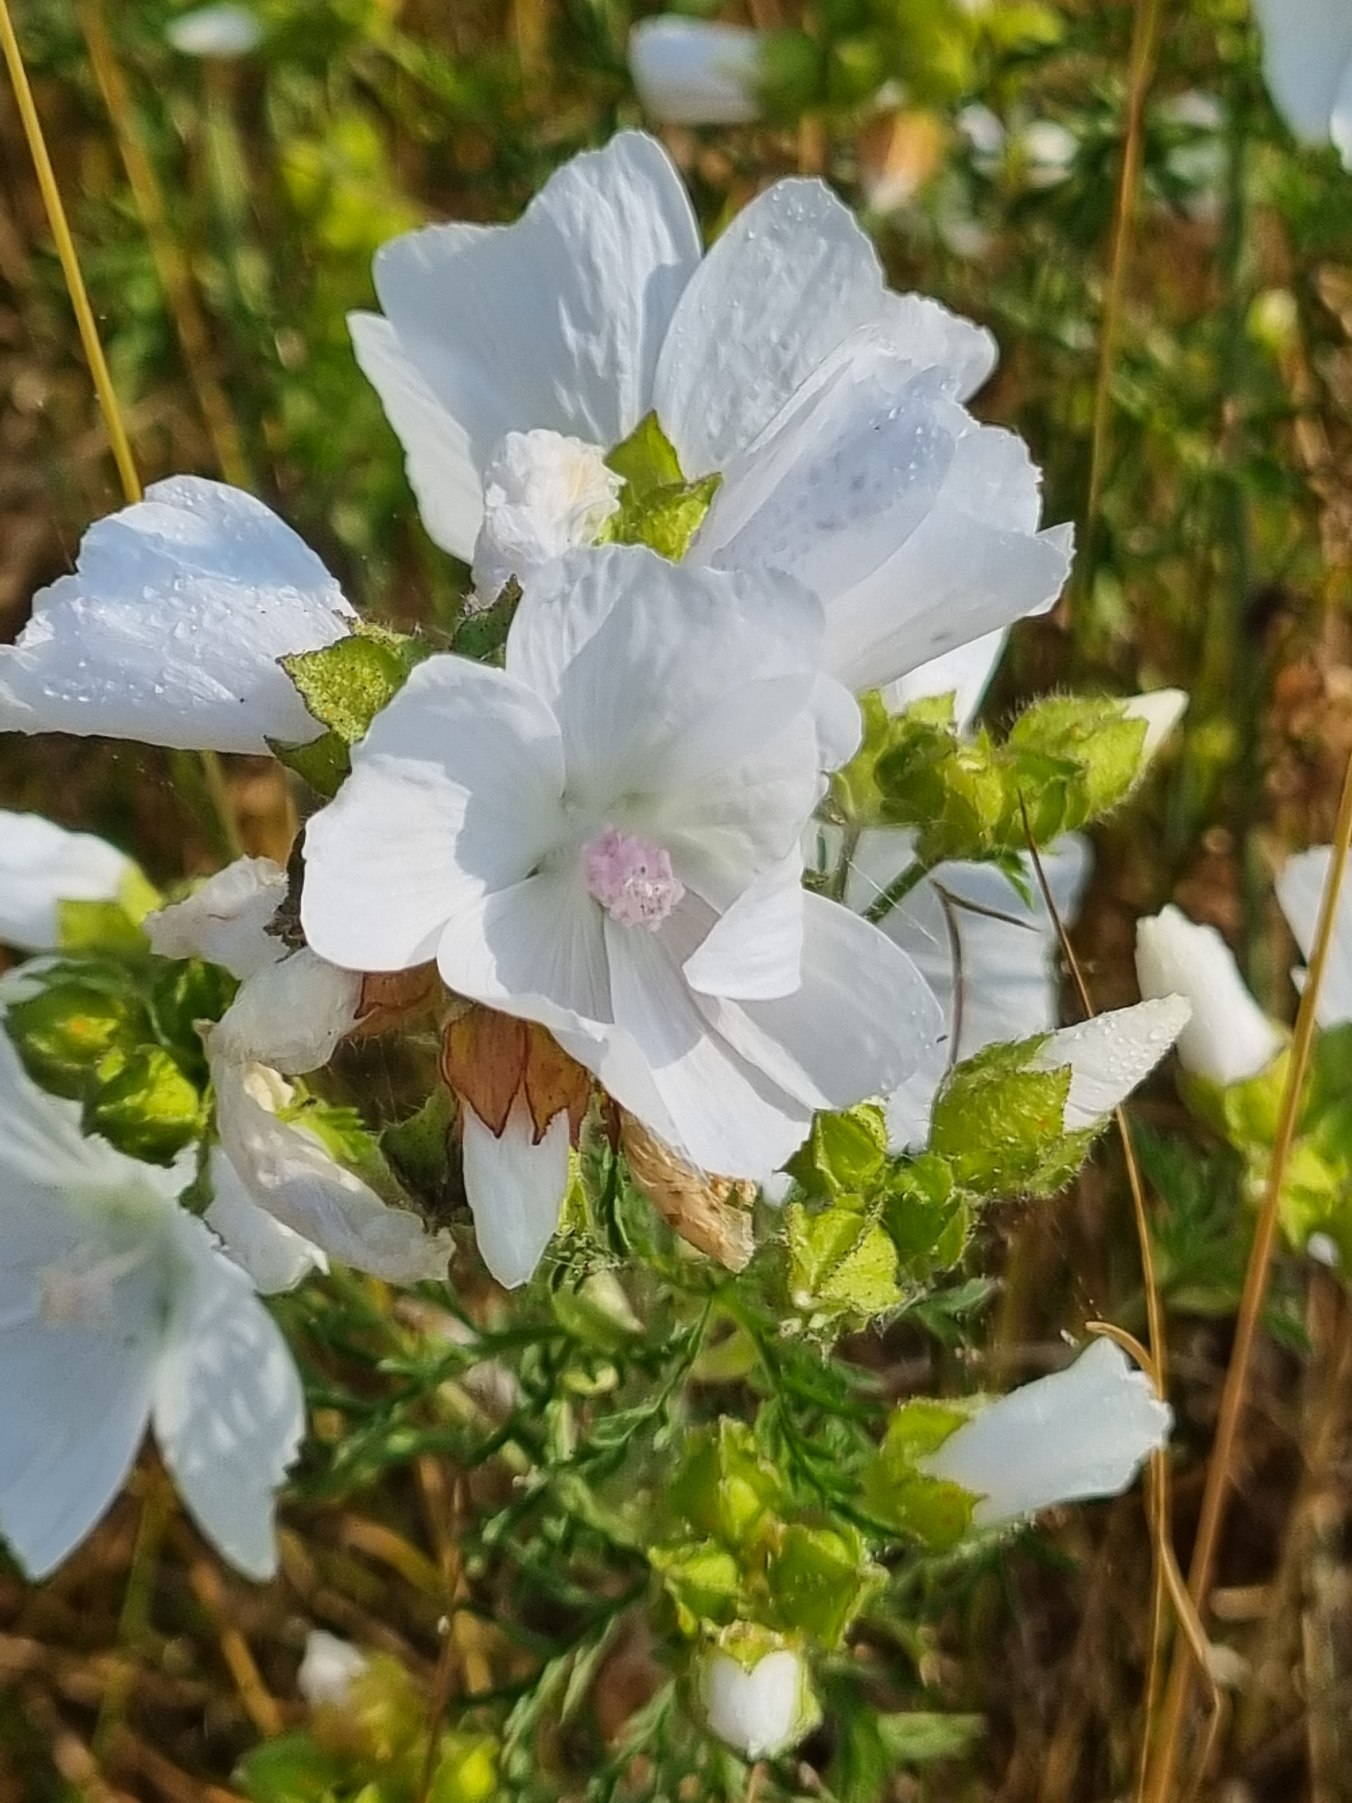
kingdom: Plantae
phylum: Tracheophyta
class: Magnoliopsida
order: Malvales
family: Malvaceae
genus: Malva
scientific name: Malva moschata
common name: Moskus-katost
